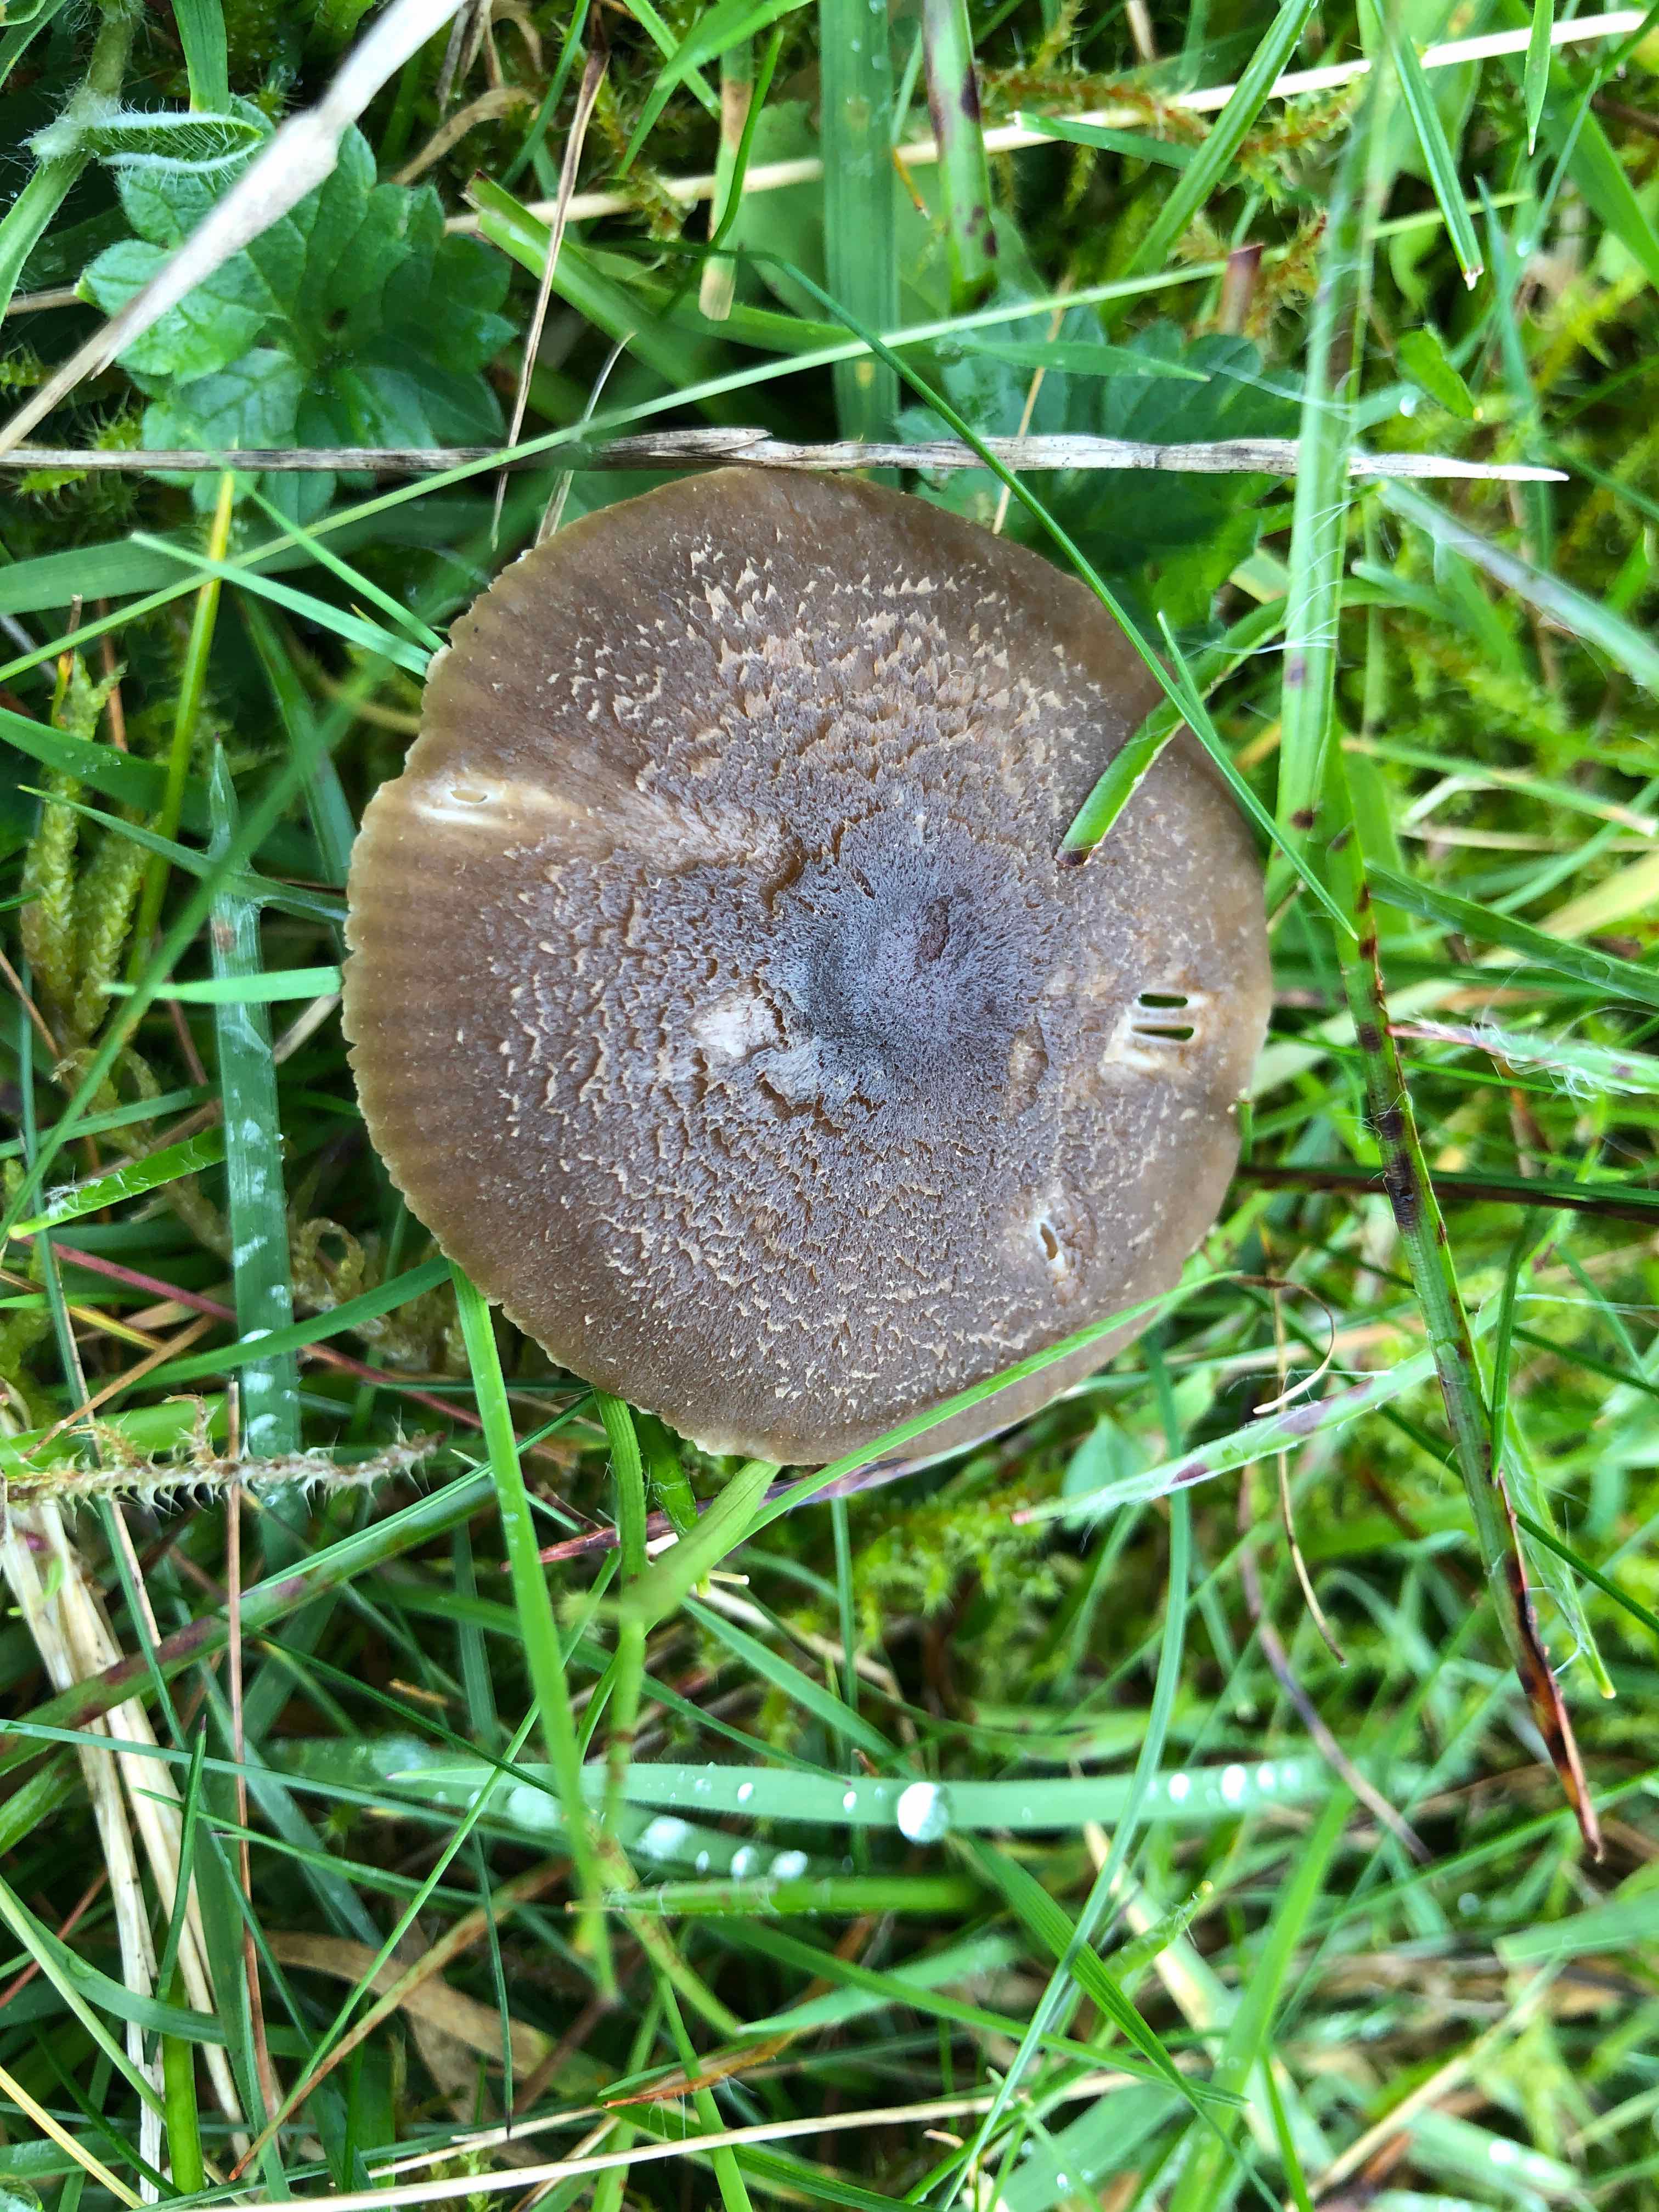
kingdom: Fungi
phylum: Basidiomycota
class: Agaricomycetes
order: Agaricales
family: Hygrophoraceae
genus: Neohygrocybe
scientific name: Neohygrocybe nitrata
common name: stinkende vokshat
